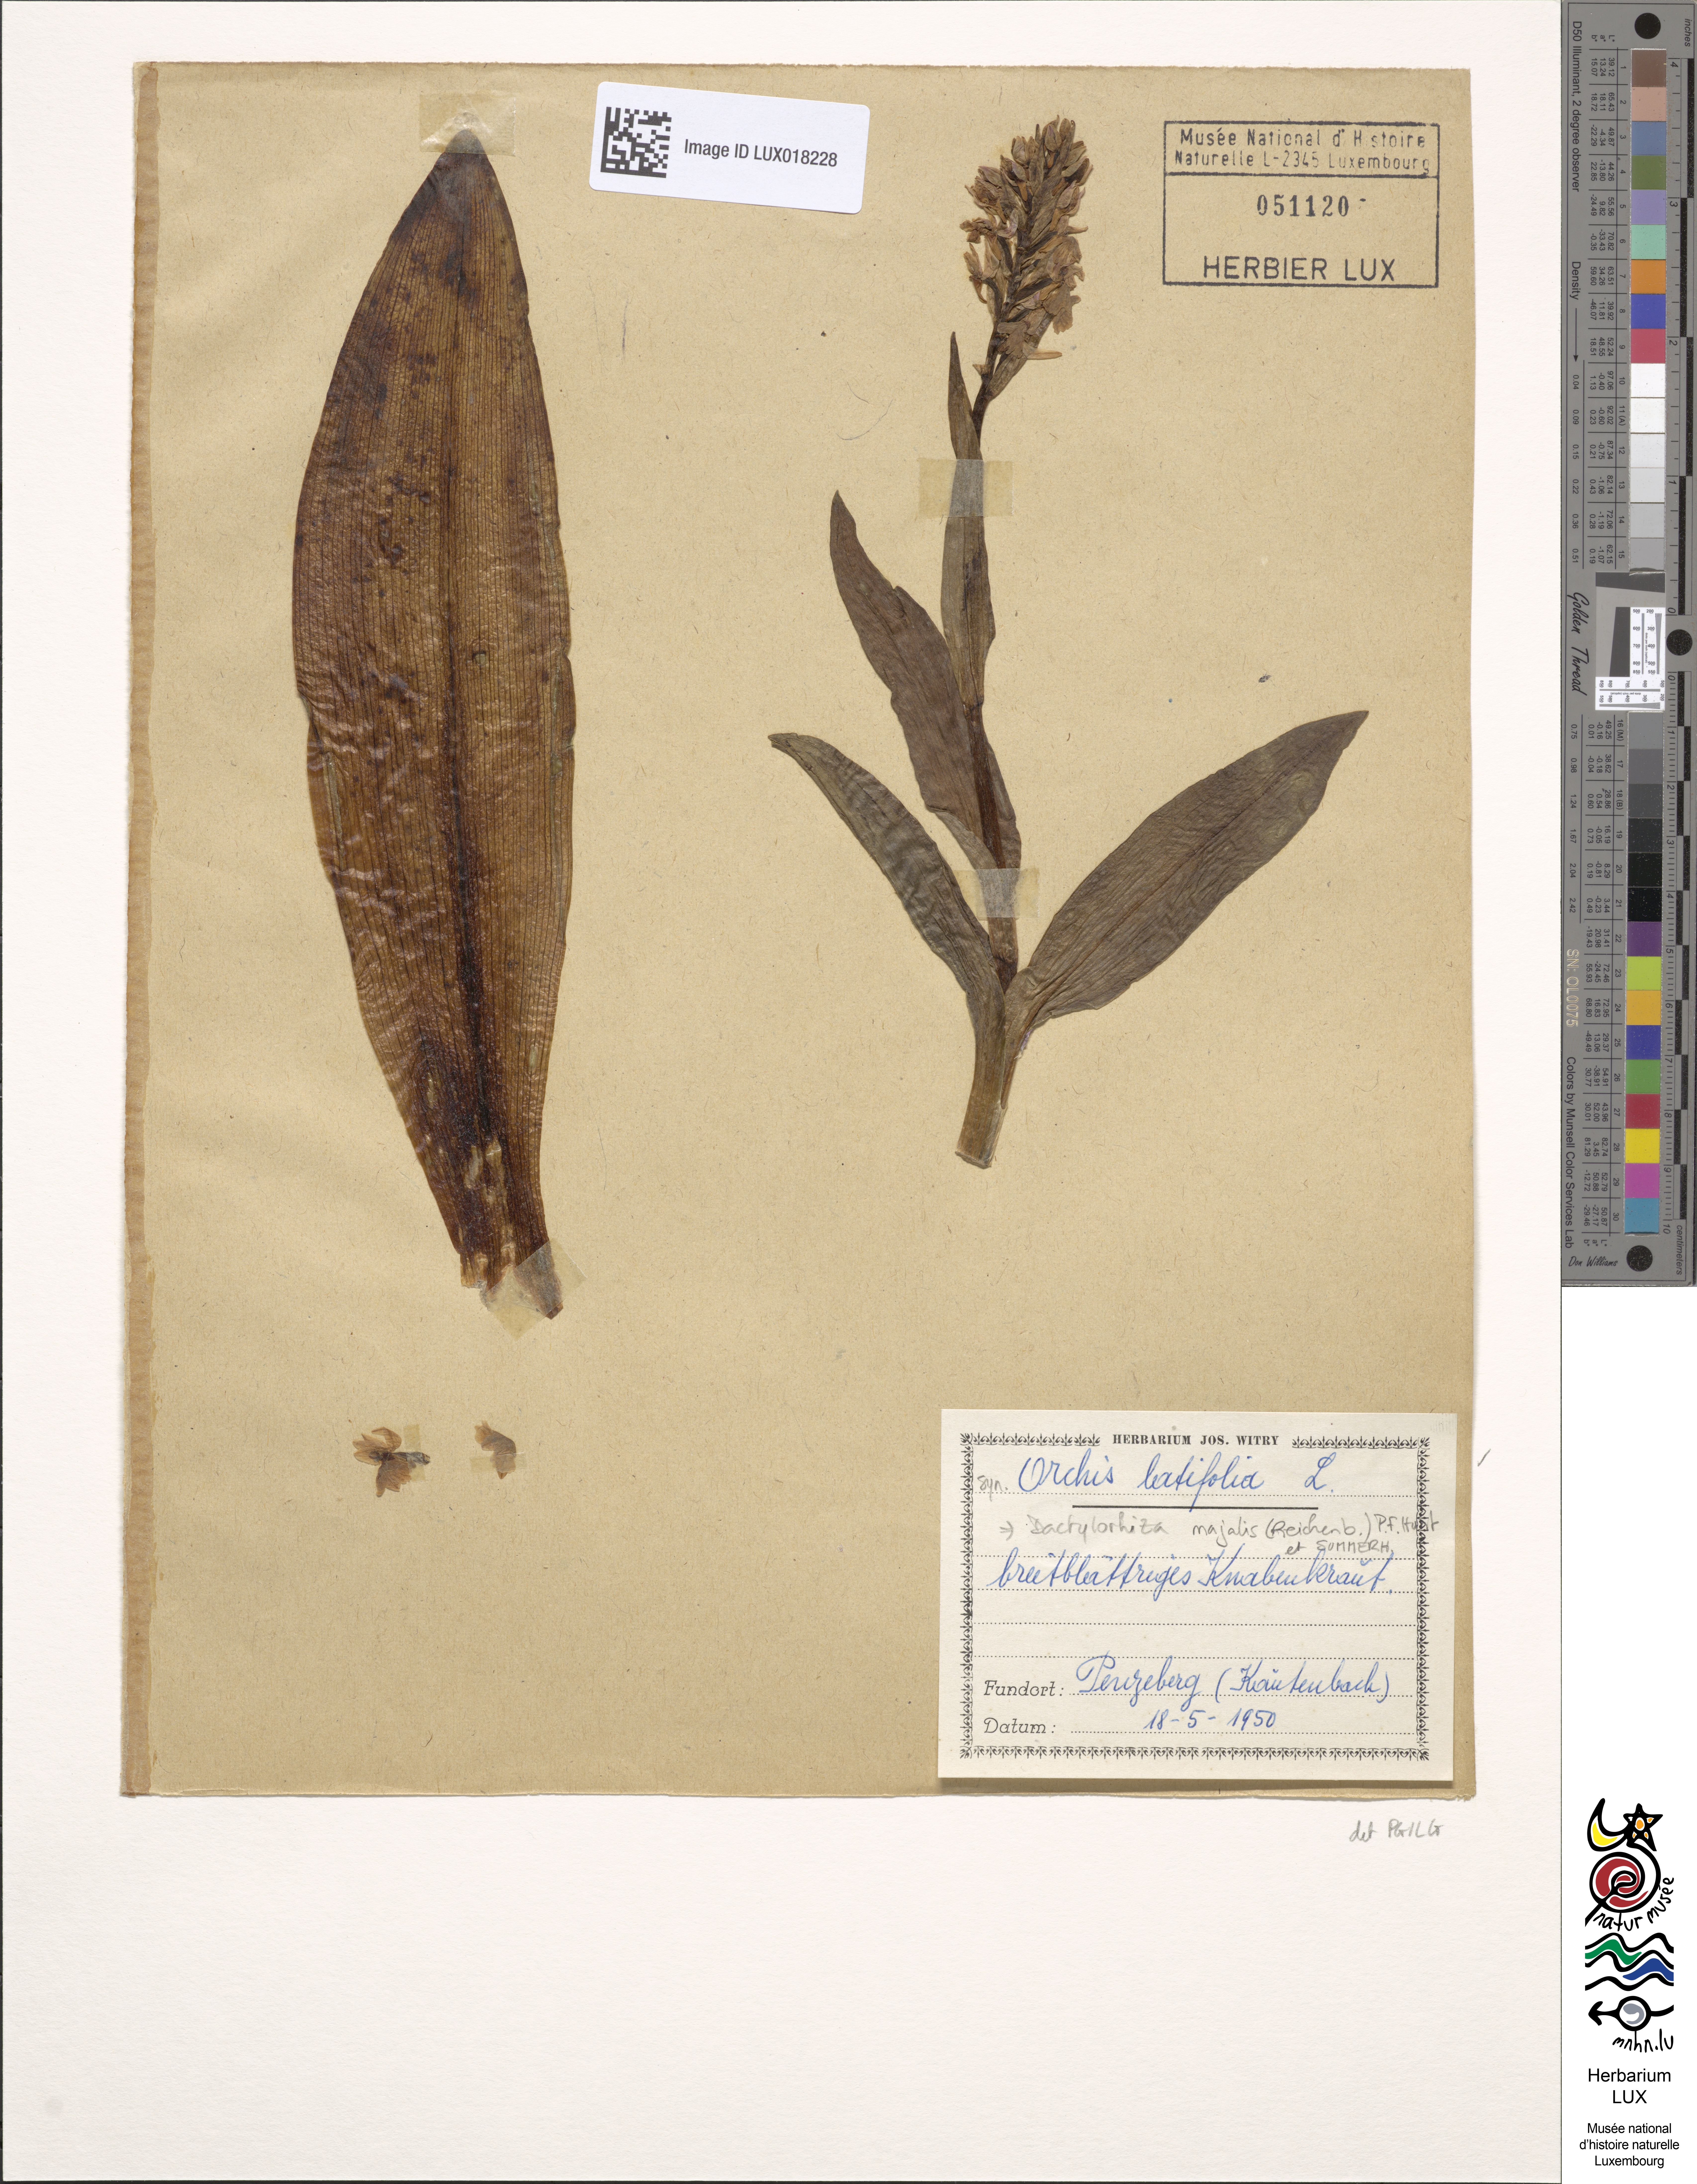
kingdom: Plantae
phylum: Tracheophyta
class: Liliopsida
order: Asparagales
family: Orchidaceae
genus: Dactylorhiza
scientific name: Dactylorhiza majalis
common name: Marsh orchid
